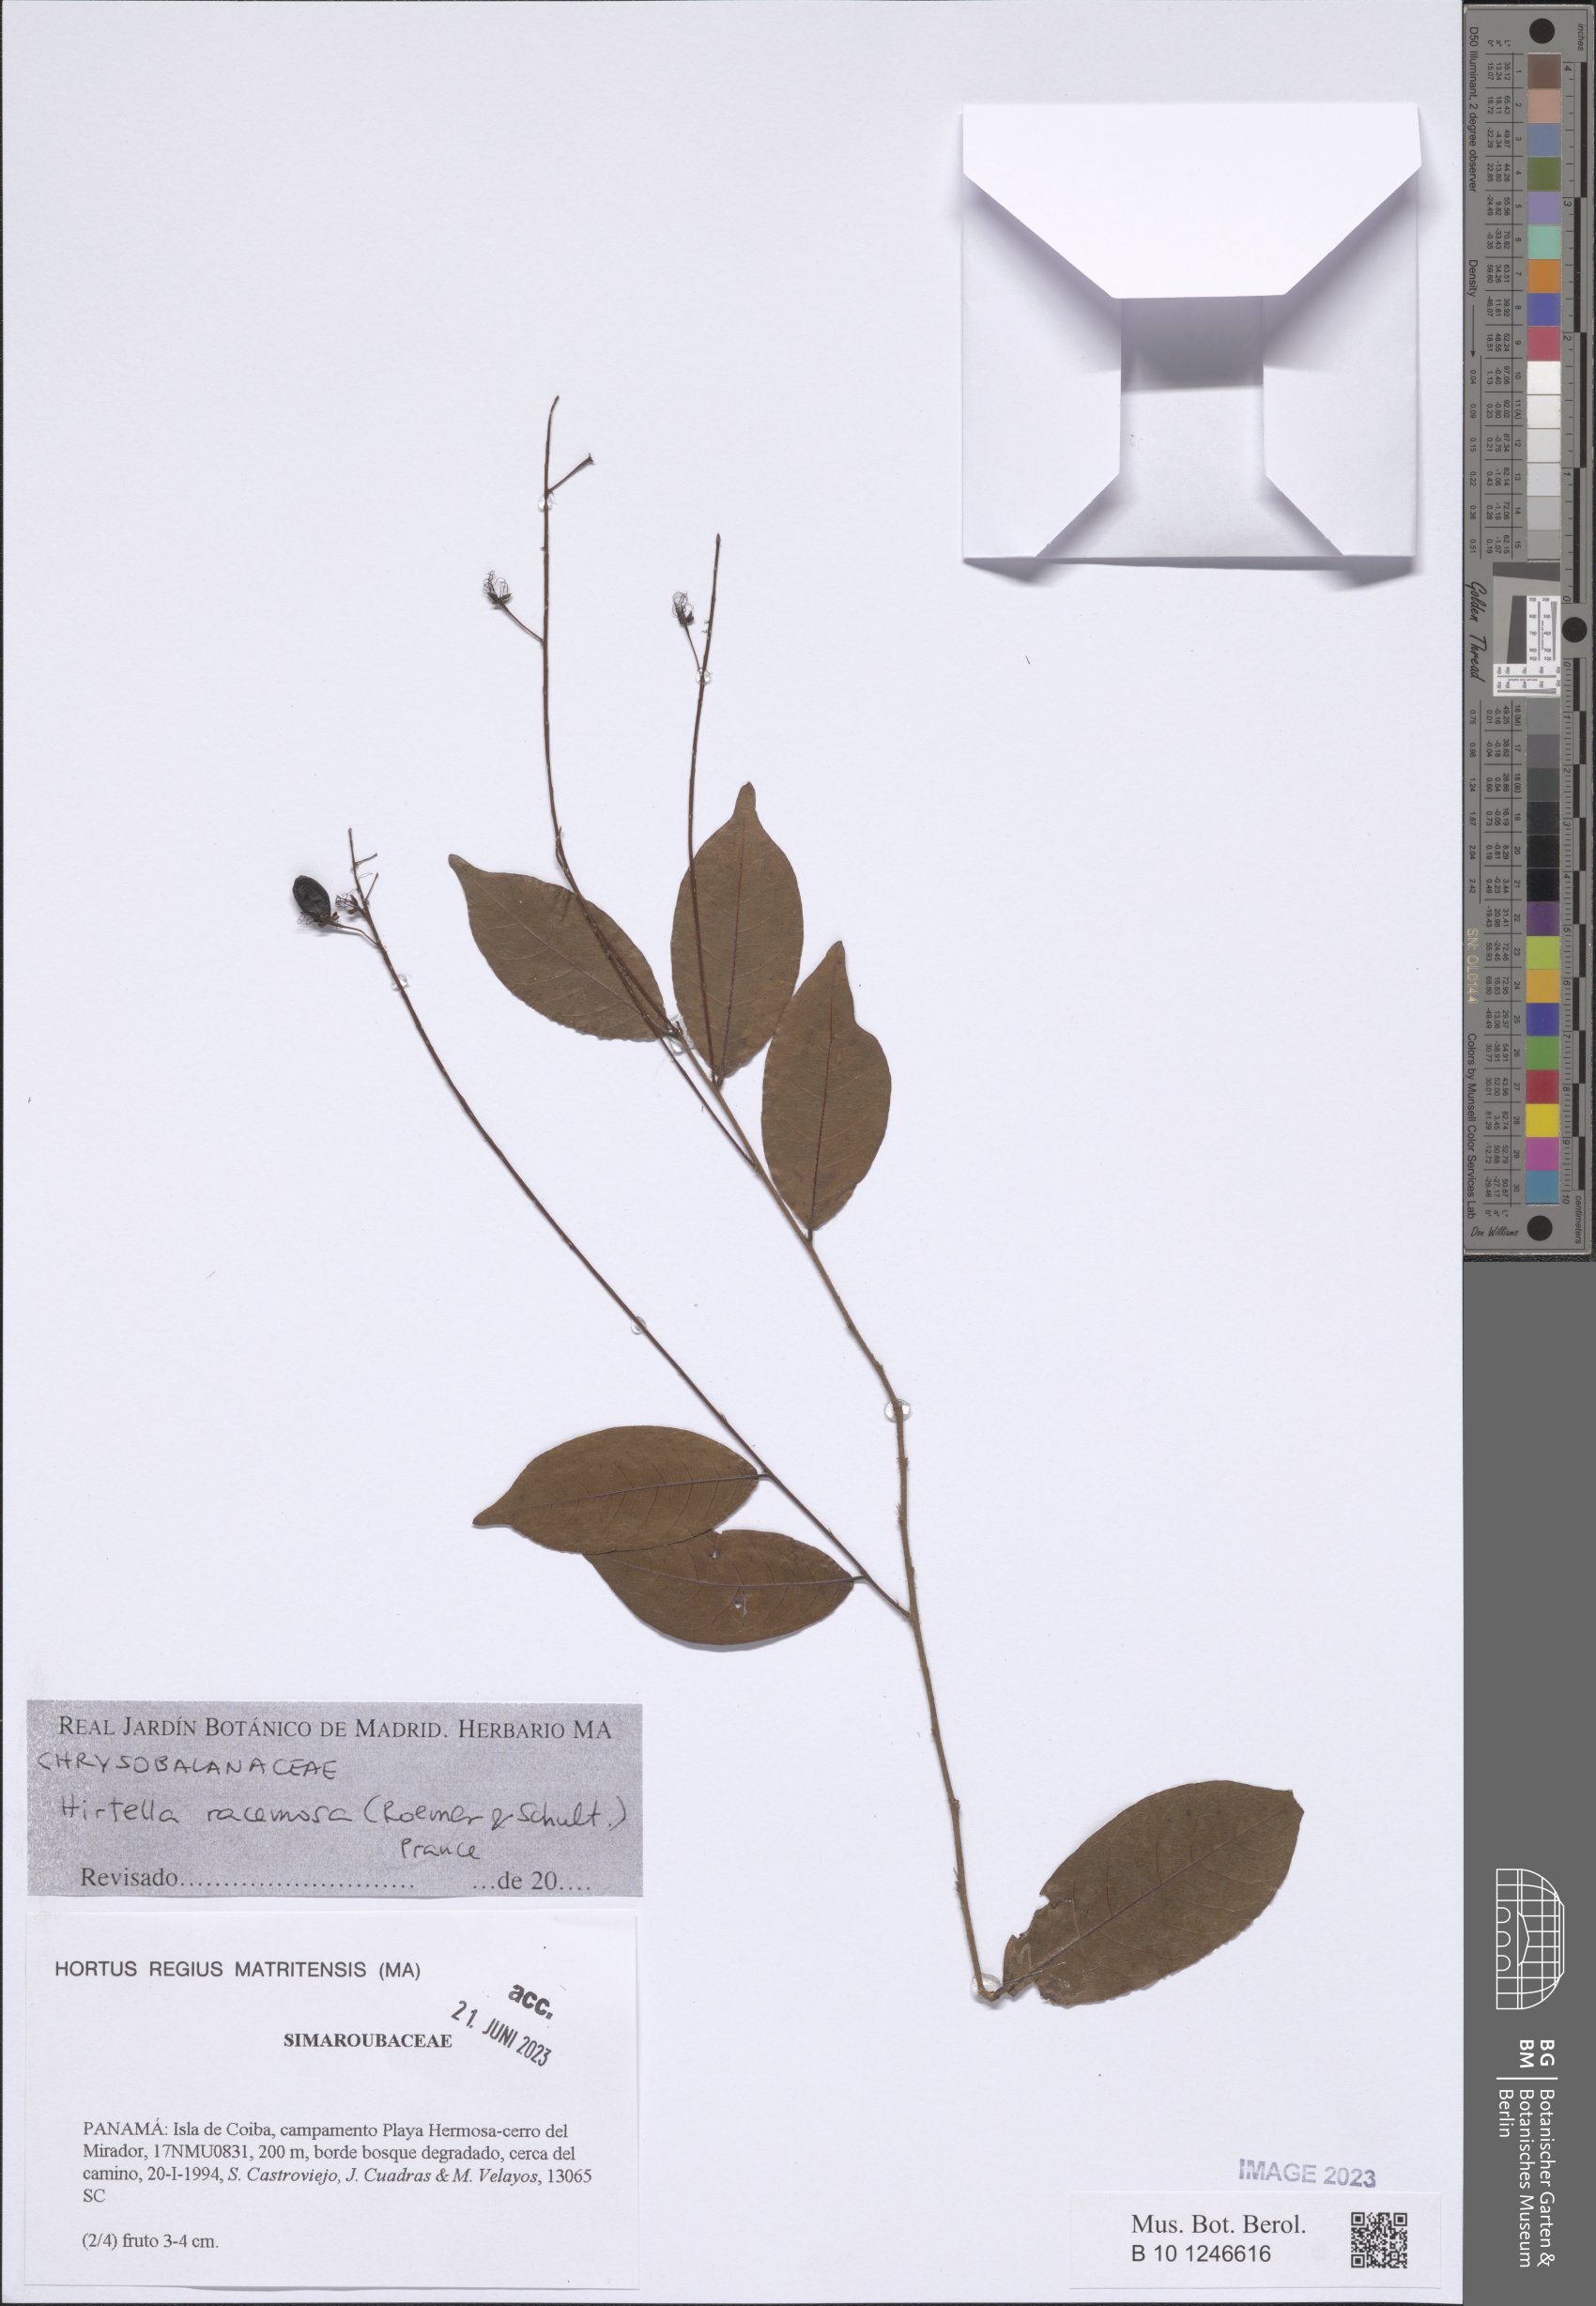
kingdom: Plantae
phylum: Tracheophyta
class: Magnoliopsida
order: Malpighiales
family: Chrysobalanaceae
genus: Hirtella
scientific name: Hirtella racemosa
